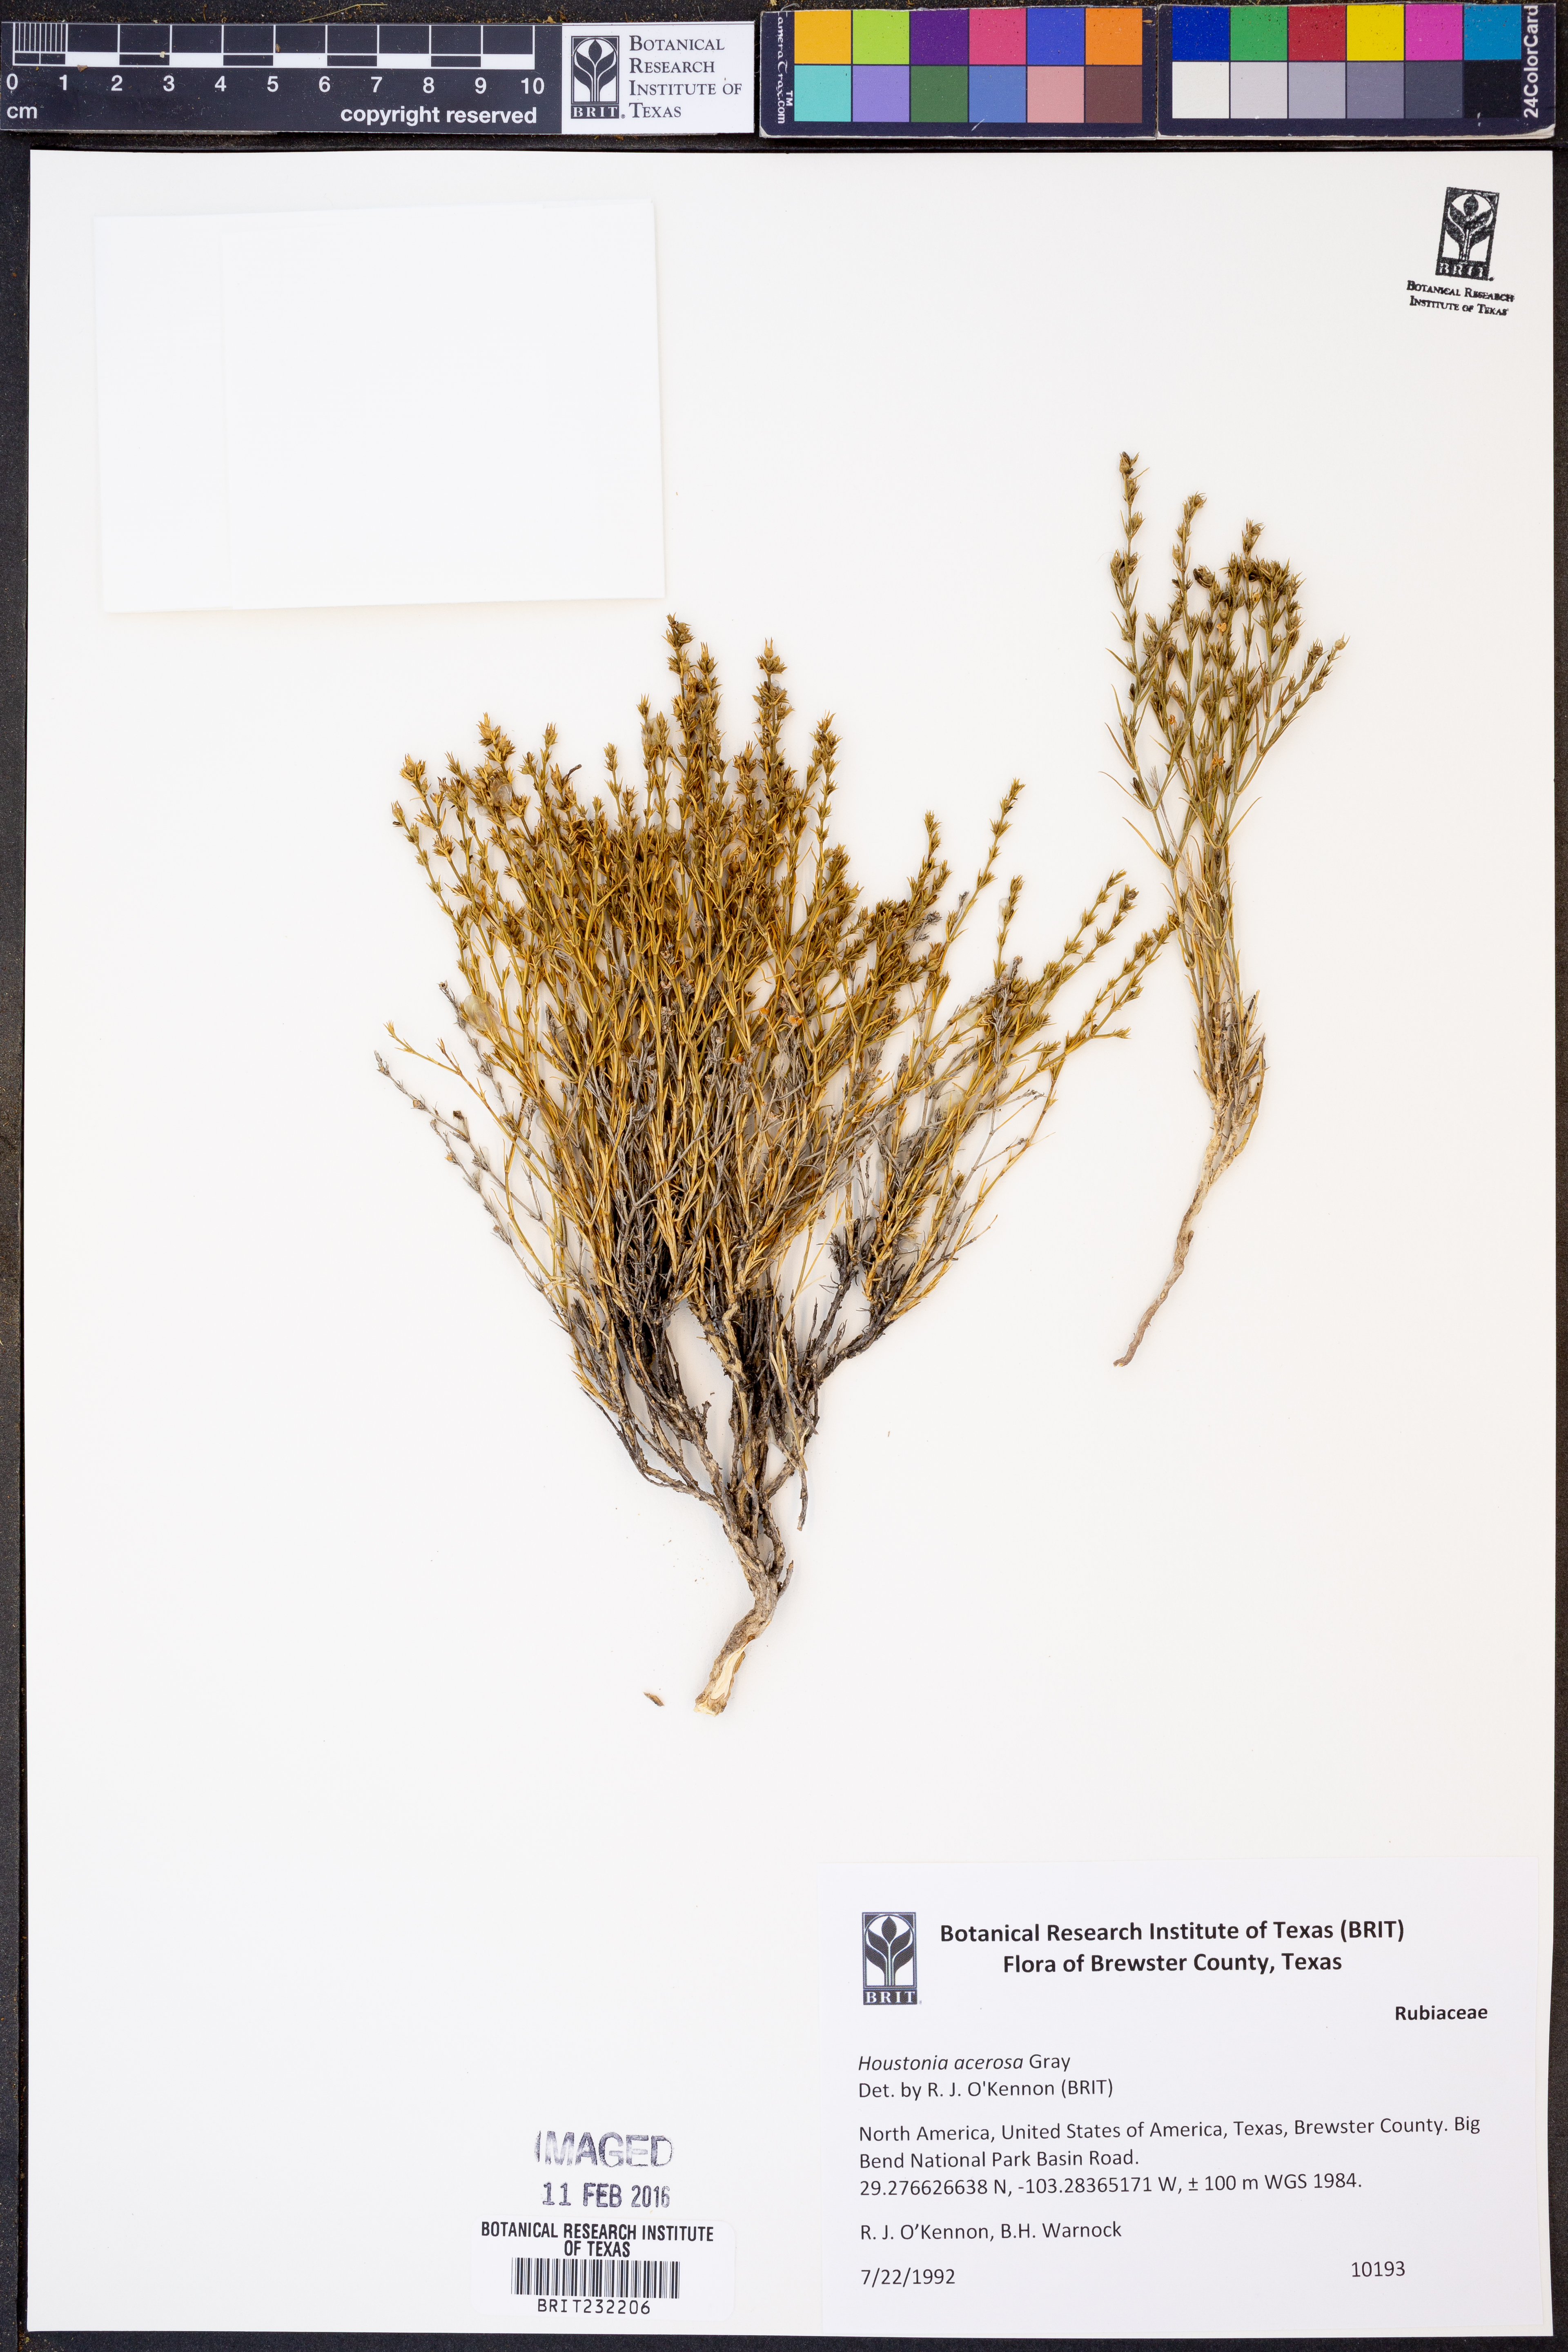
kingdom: Plantae
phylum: Tracheophyta
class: Magnoliopsida
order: Gentianales
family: Rubiaceae
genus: Houstonia
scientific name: Houstonia acerosa
